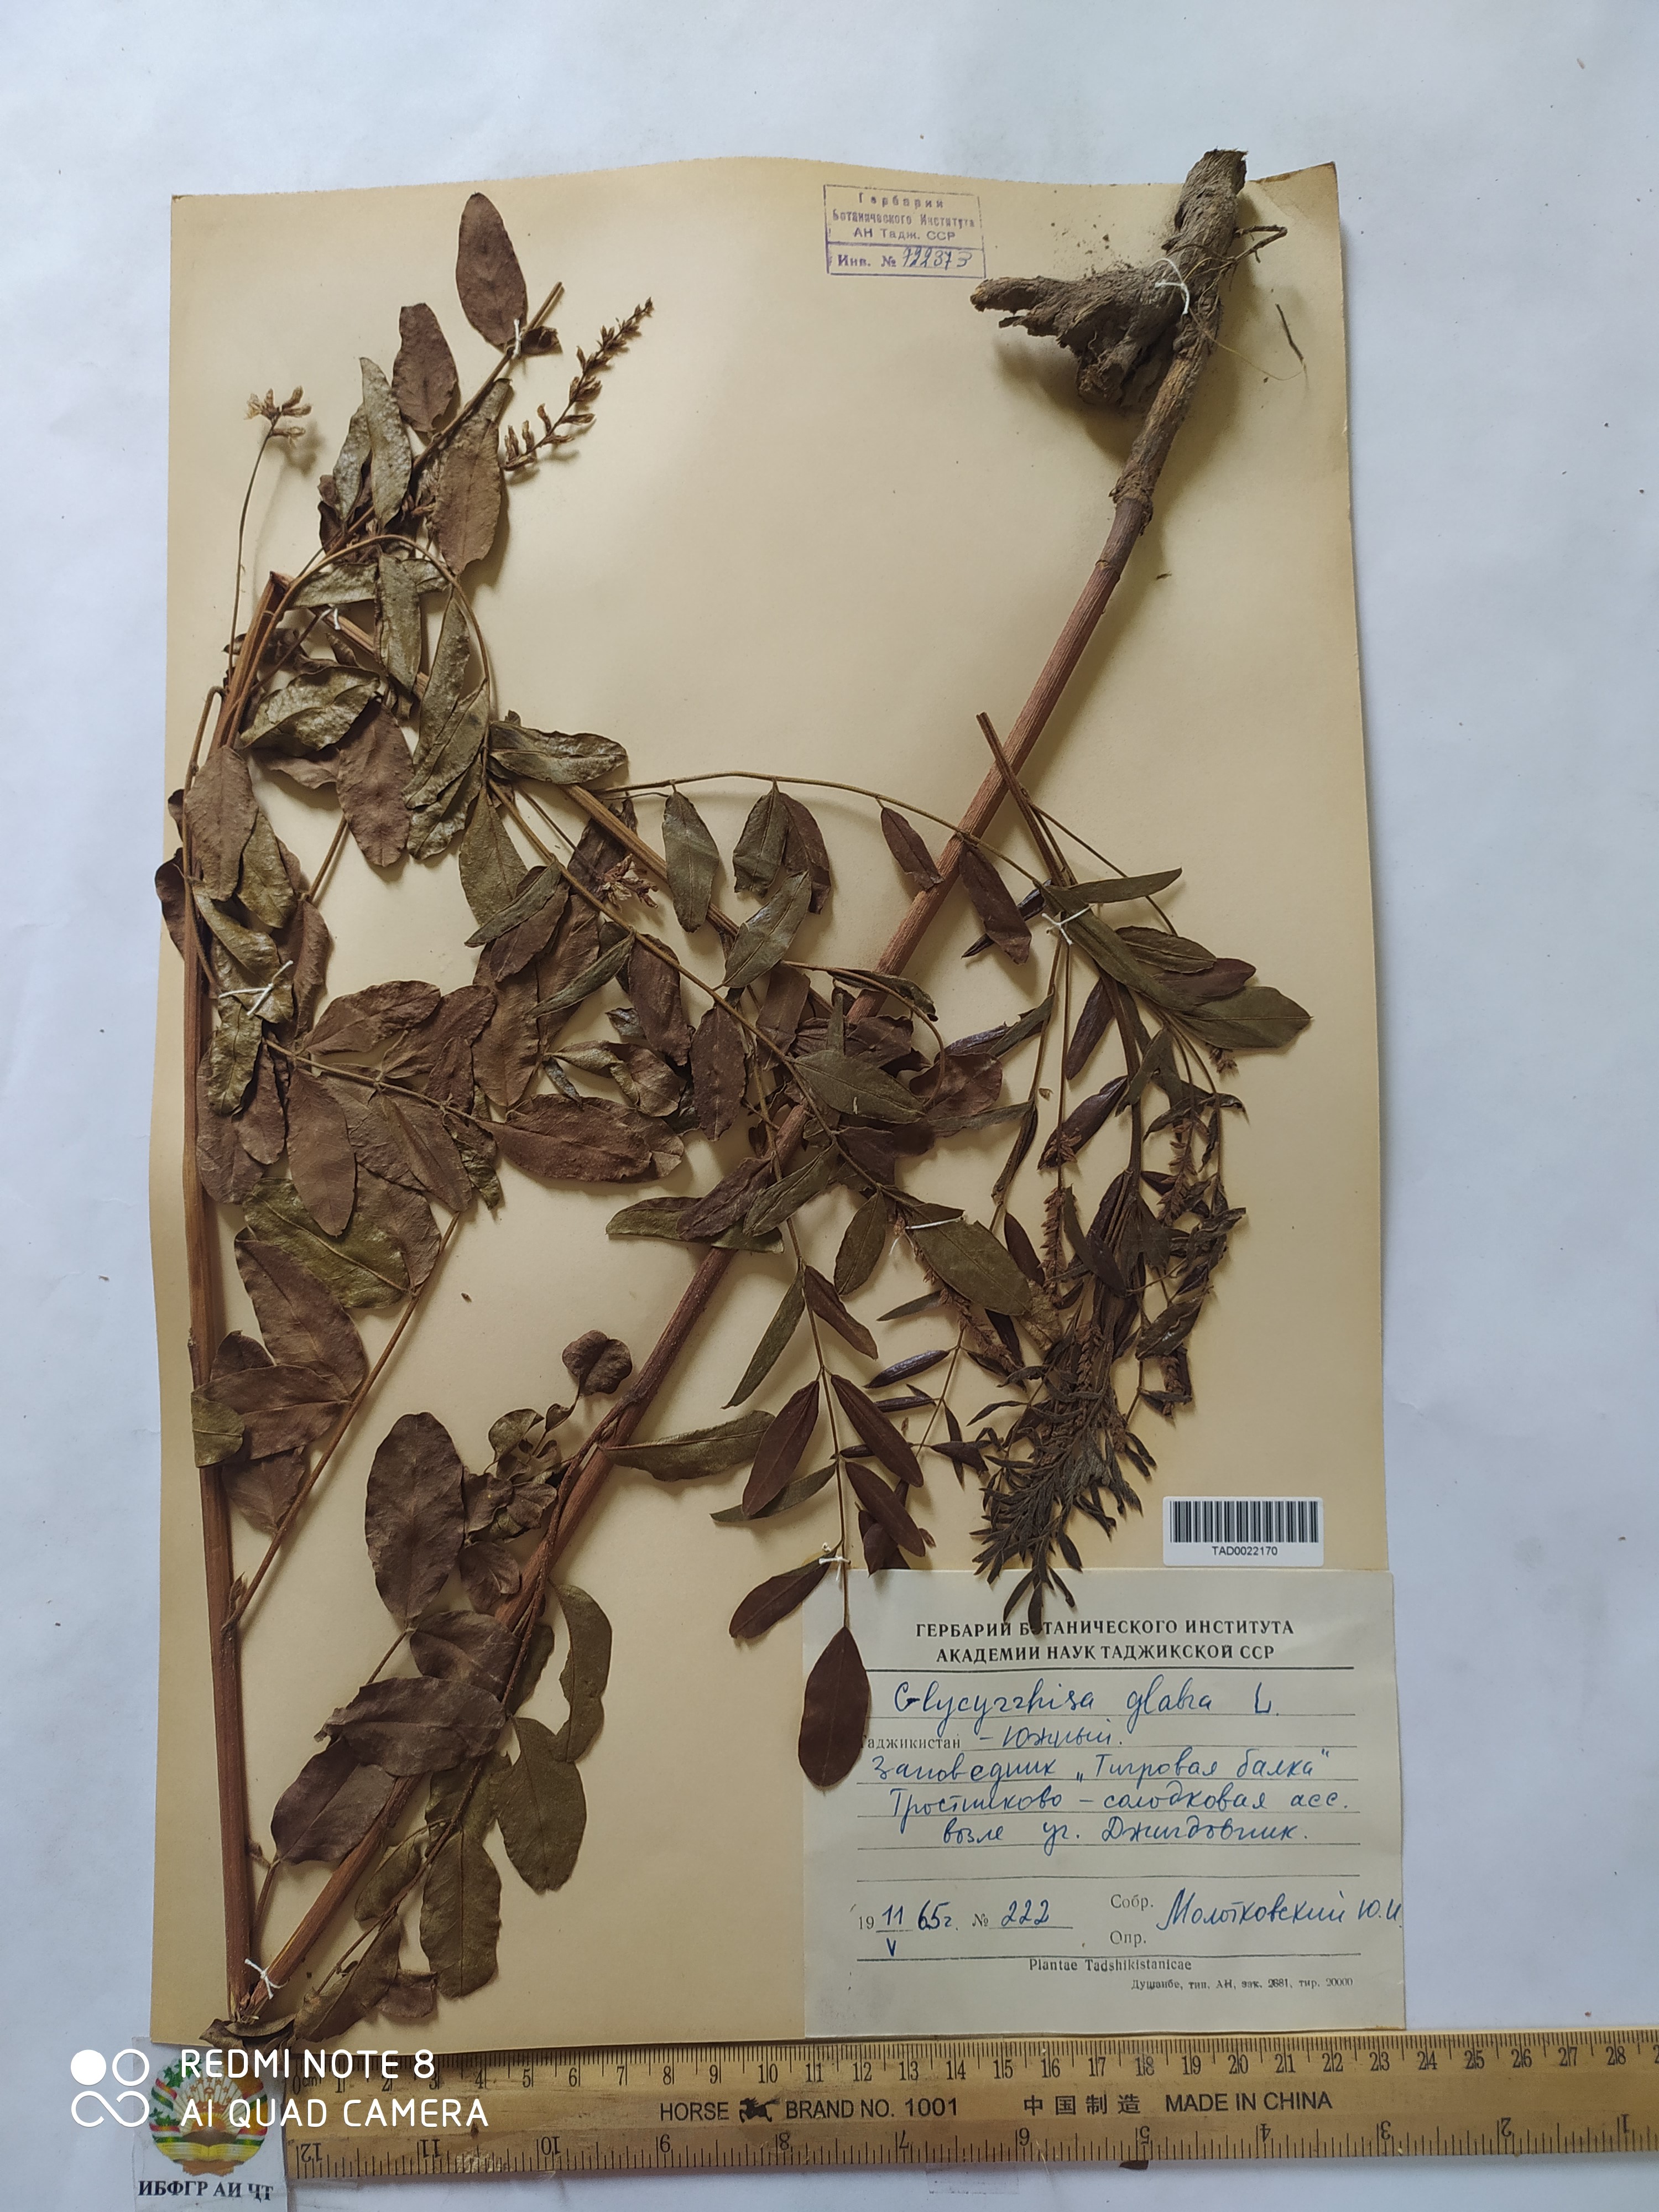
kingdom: Plantae
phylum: Tracheophyta
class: Magnoliopsida
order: Fabales
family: Fabaceae
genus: Glycyrrhiza
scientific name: Glycyrrhiza glabra
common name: Liquorice
